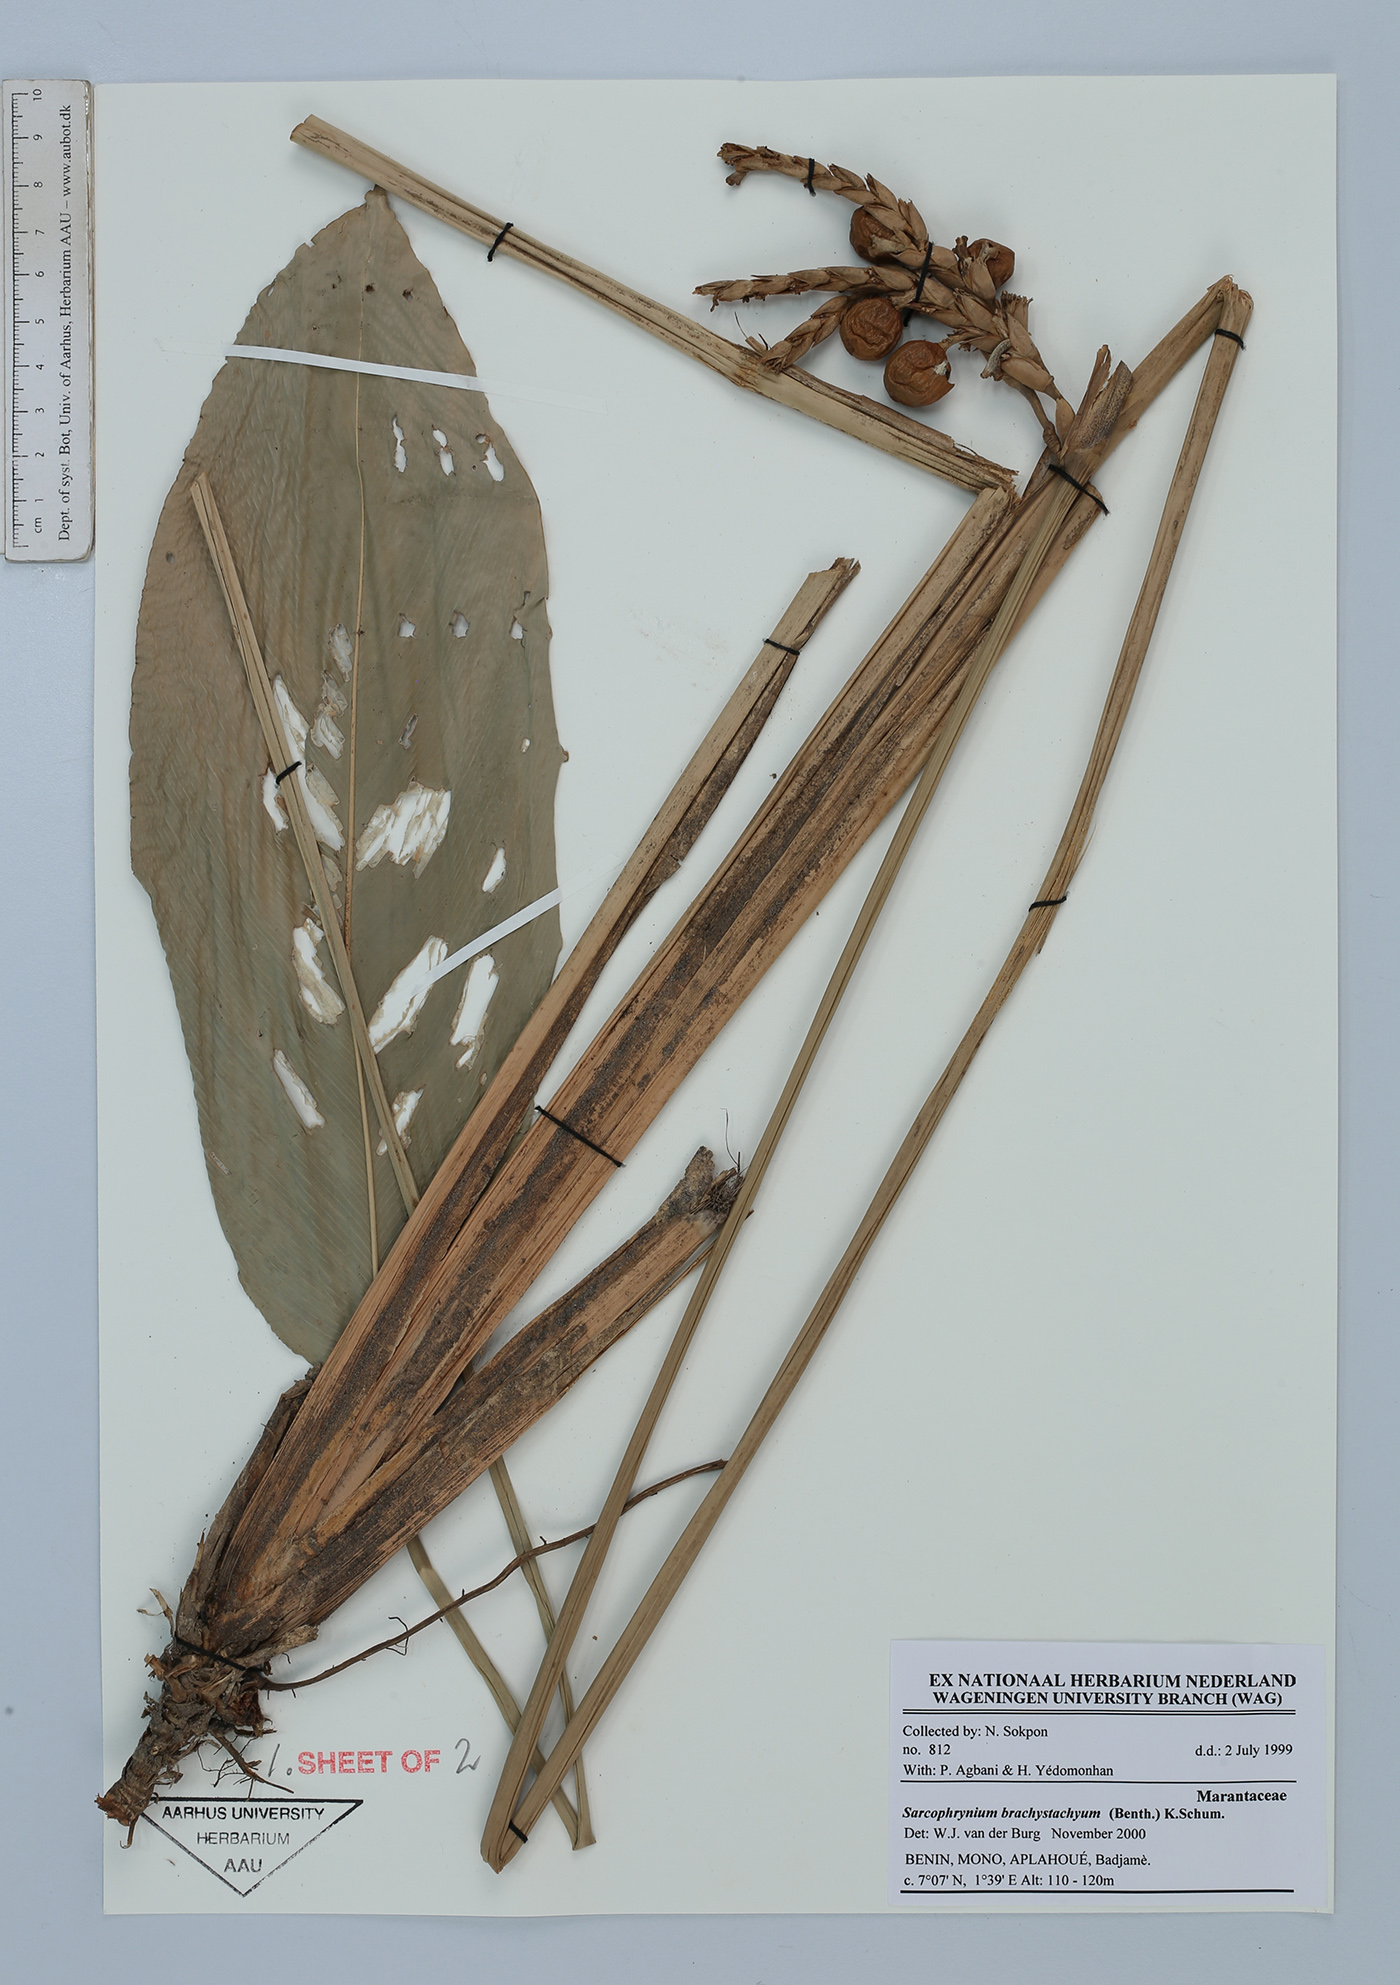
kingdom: Plantae
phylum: Tracheophyta
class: Liliopsida
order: Zingiberales
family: Marantaceae
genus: Sarcophrynium
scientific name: Sarcophrynium brachystachyum
